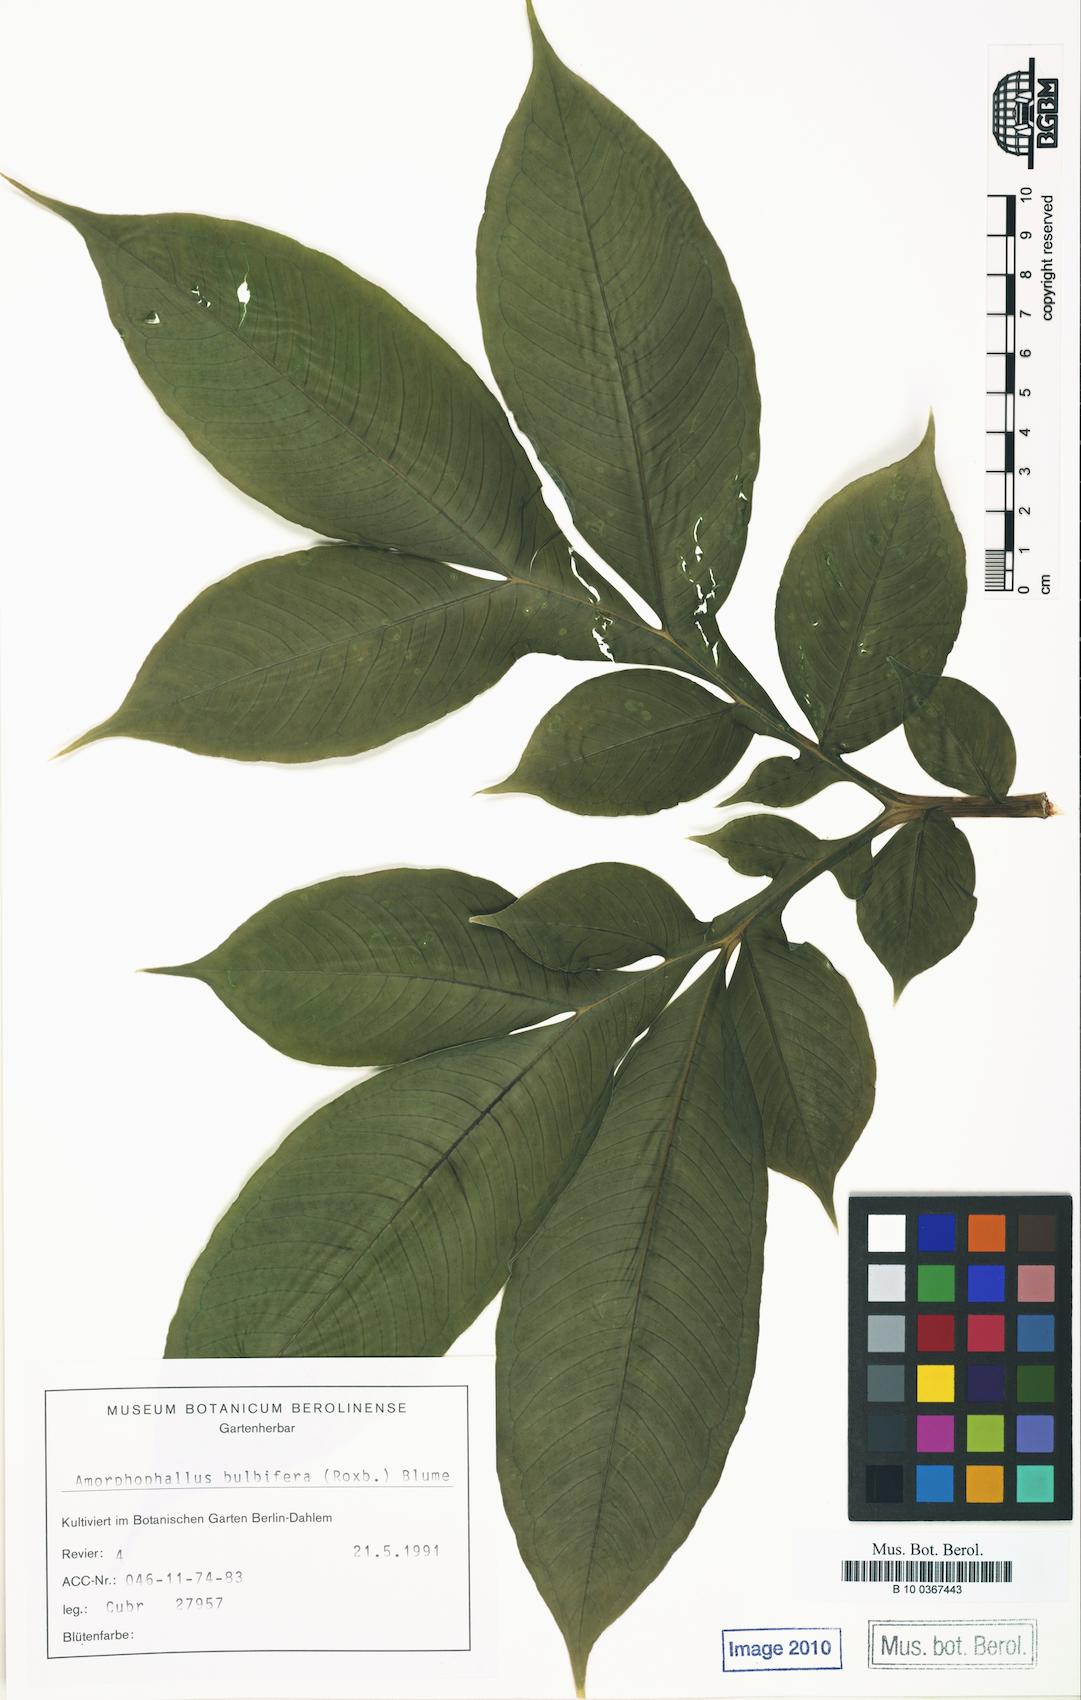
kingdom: Plantae
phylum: Tracheophyta
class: Liliopsida
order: Alismatales
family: Araceae
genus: Amorphophallus
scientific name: Amorphophallus bulbifer
